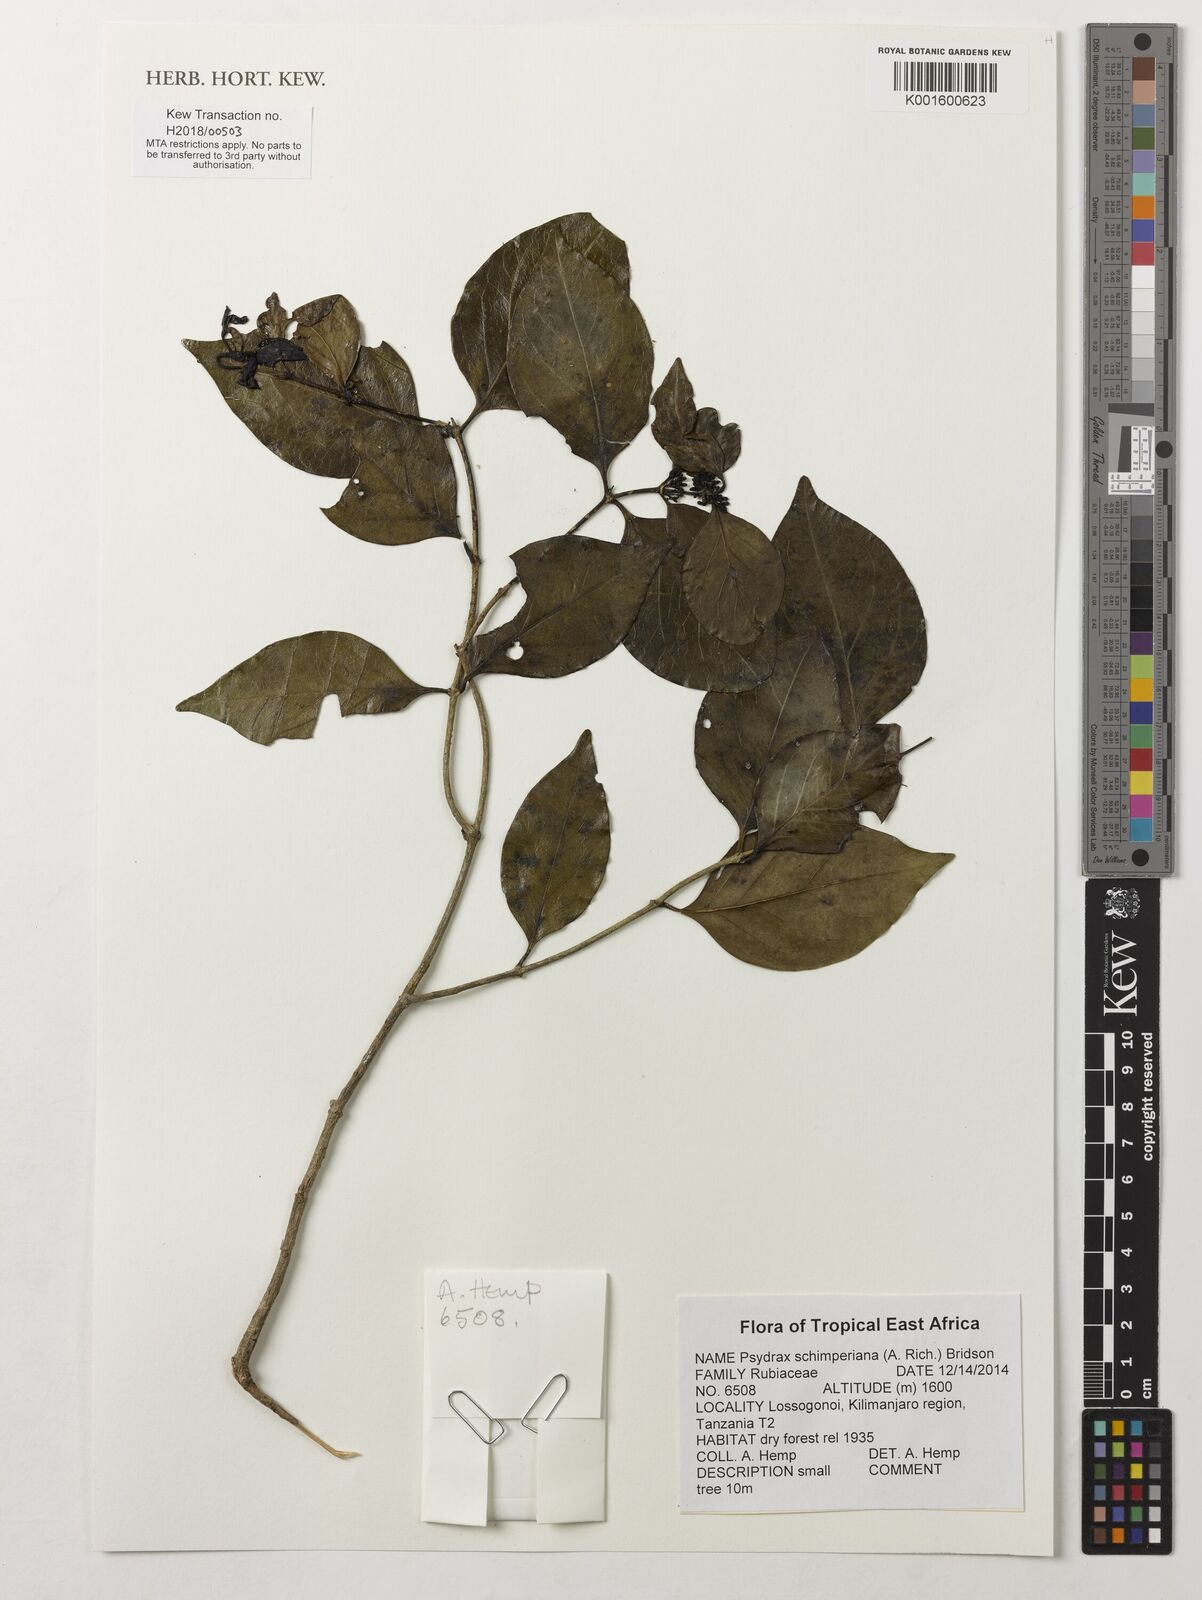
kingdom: Plantae
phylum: Tracheophyta
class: Magnoliopsida
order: Gentianales
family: Rubiaceae
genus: Psydrax
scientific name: Psydrax schimperianus
